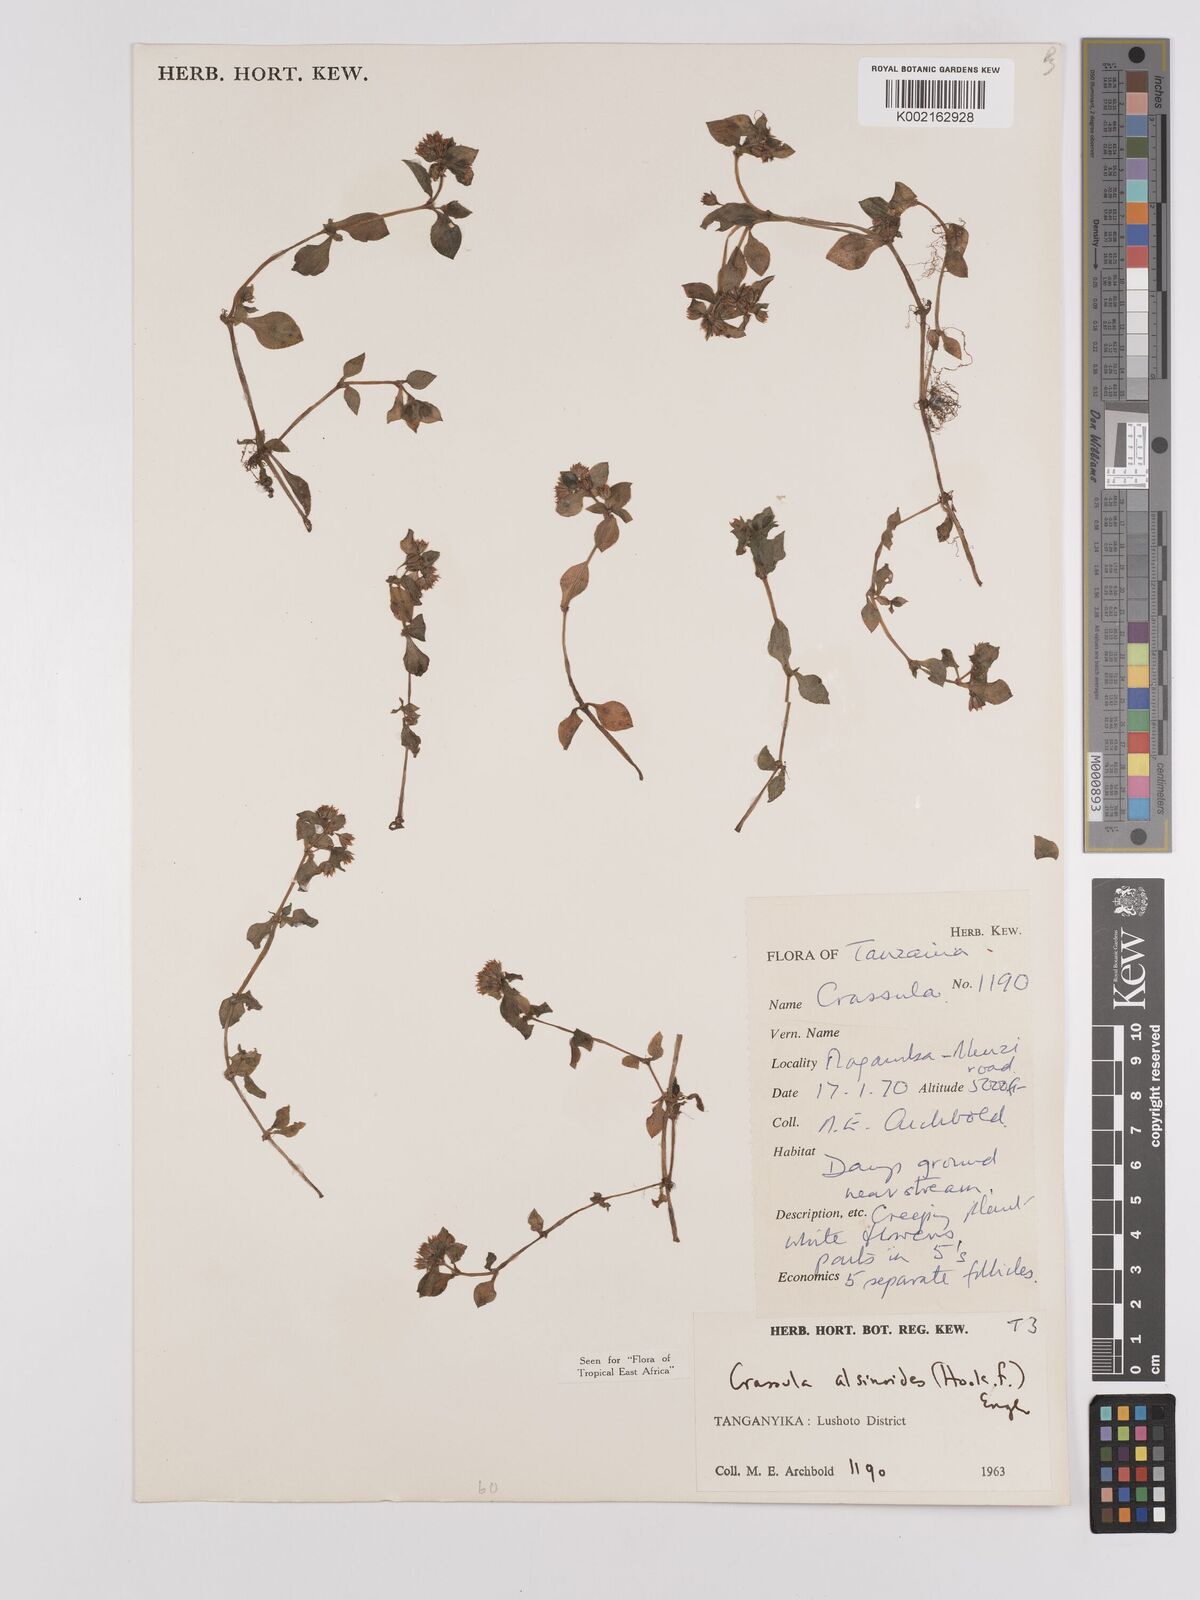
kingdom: Plantae
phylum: Tracheophyta
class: Magnoliopsida
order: Saxifragales
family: Crassulaceae
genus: Crassula
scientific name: Crassula alsinoides
